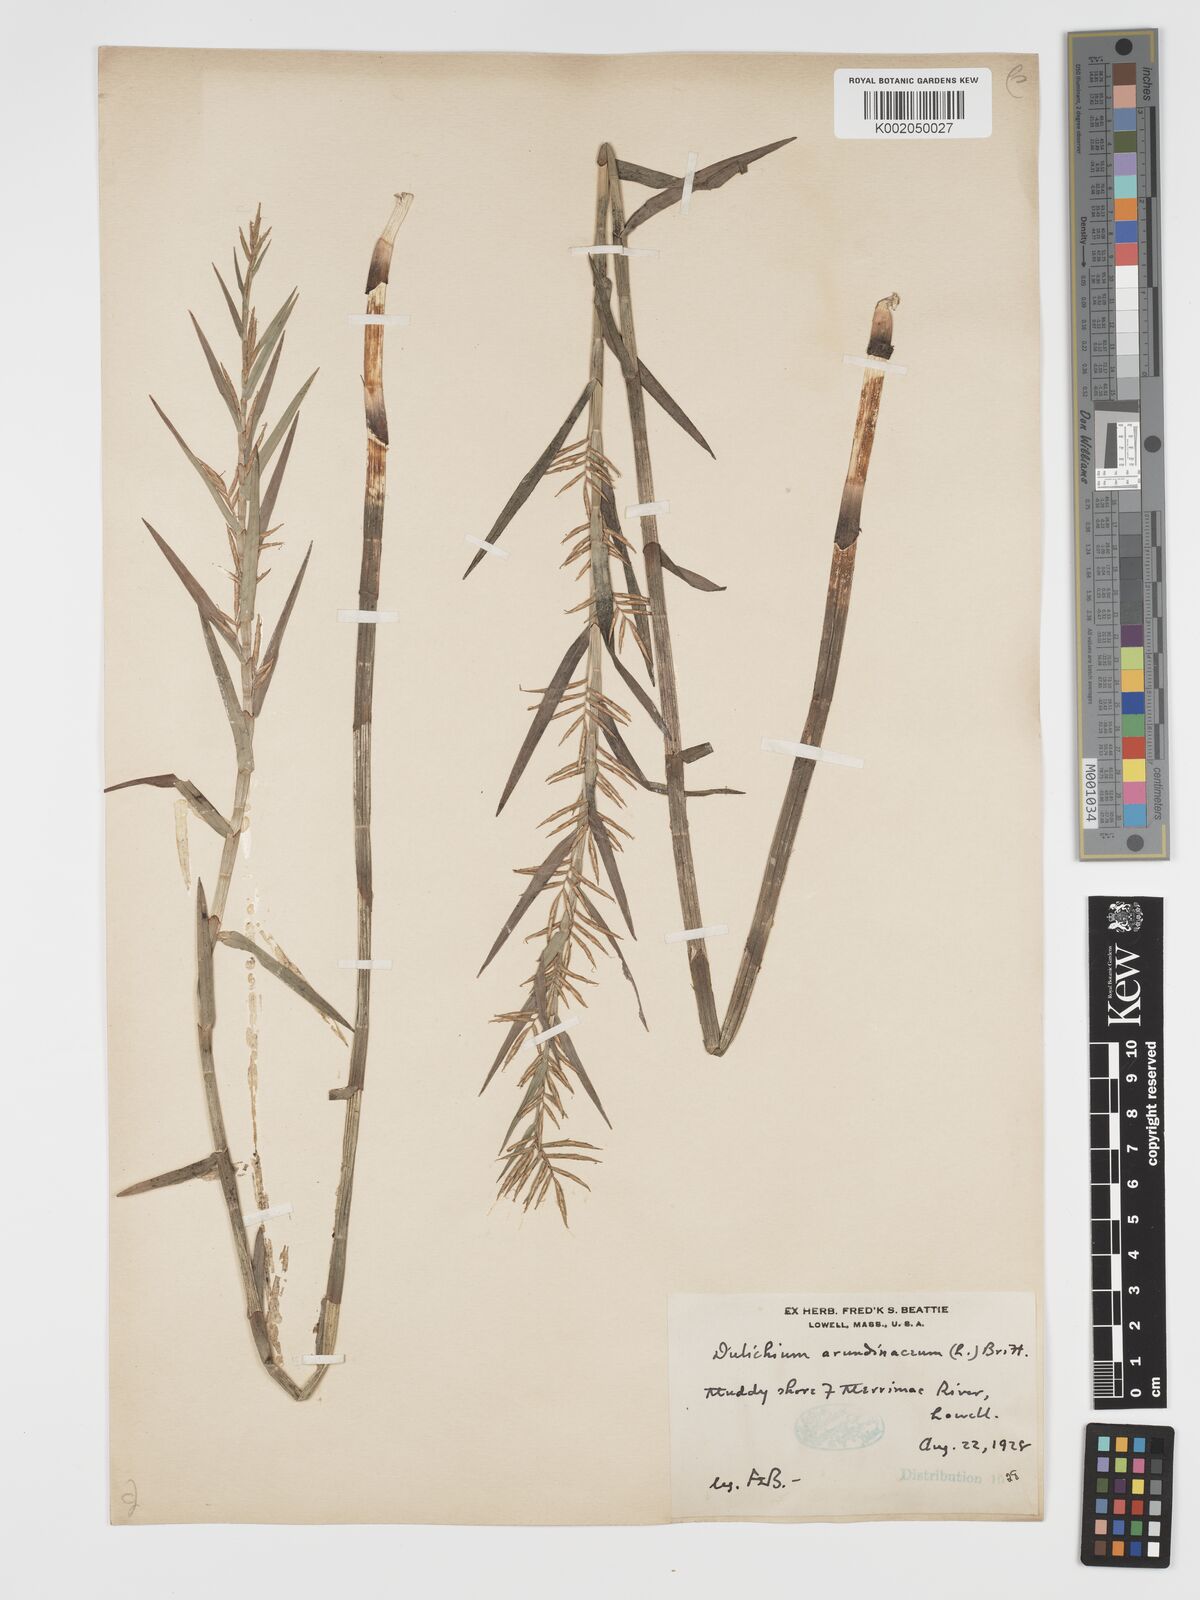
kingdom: Plantae
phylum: Tracheophyta
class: Liliopsida
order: Poales
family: Cyperaceae
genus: Dulichium
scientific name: Dulichium arundinaceum
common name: Three-way sedge
